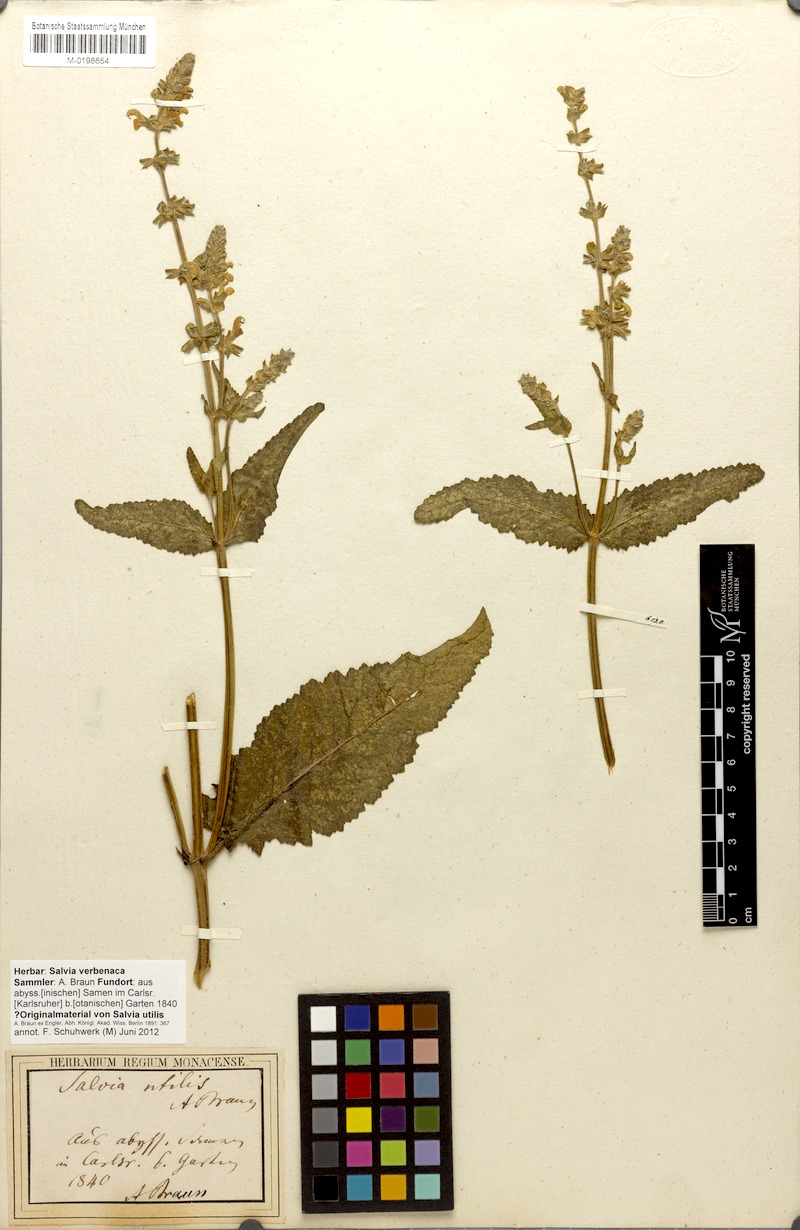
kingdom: Plantae
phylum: Tracheophyta
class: Magnoliopsida
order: Lamiales
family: Lamiaceae
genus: Salvia
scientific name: Salvia verbenaca
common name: Wild clary
